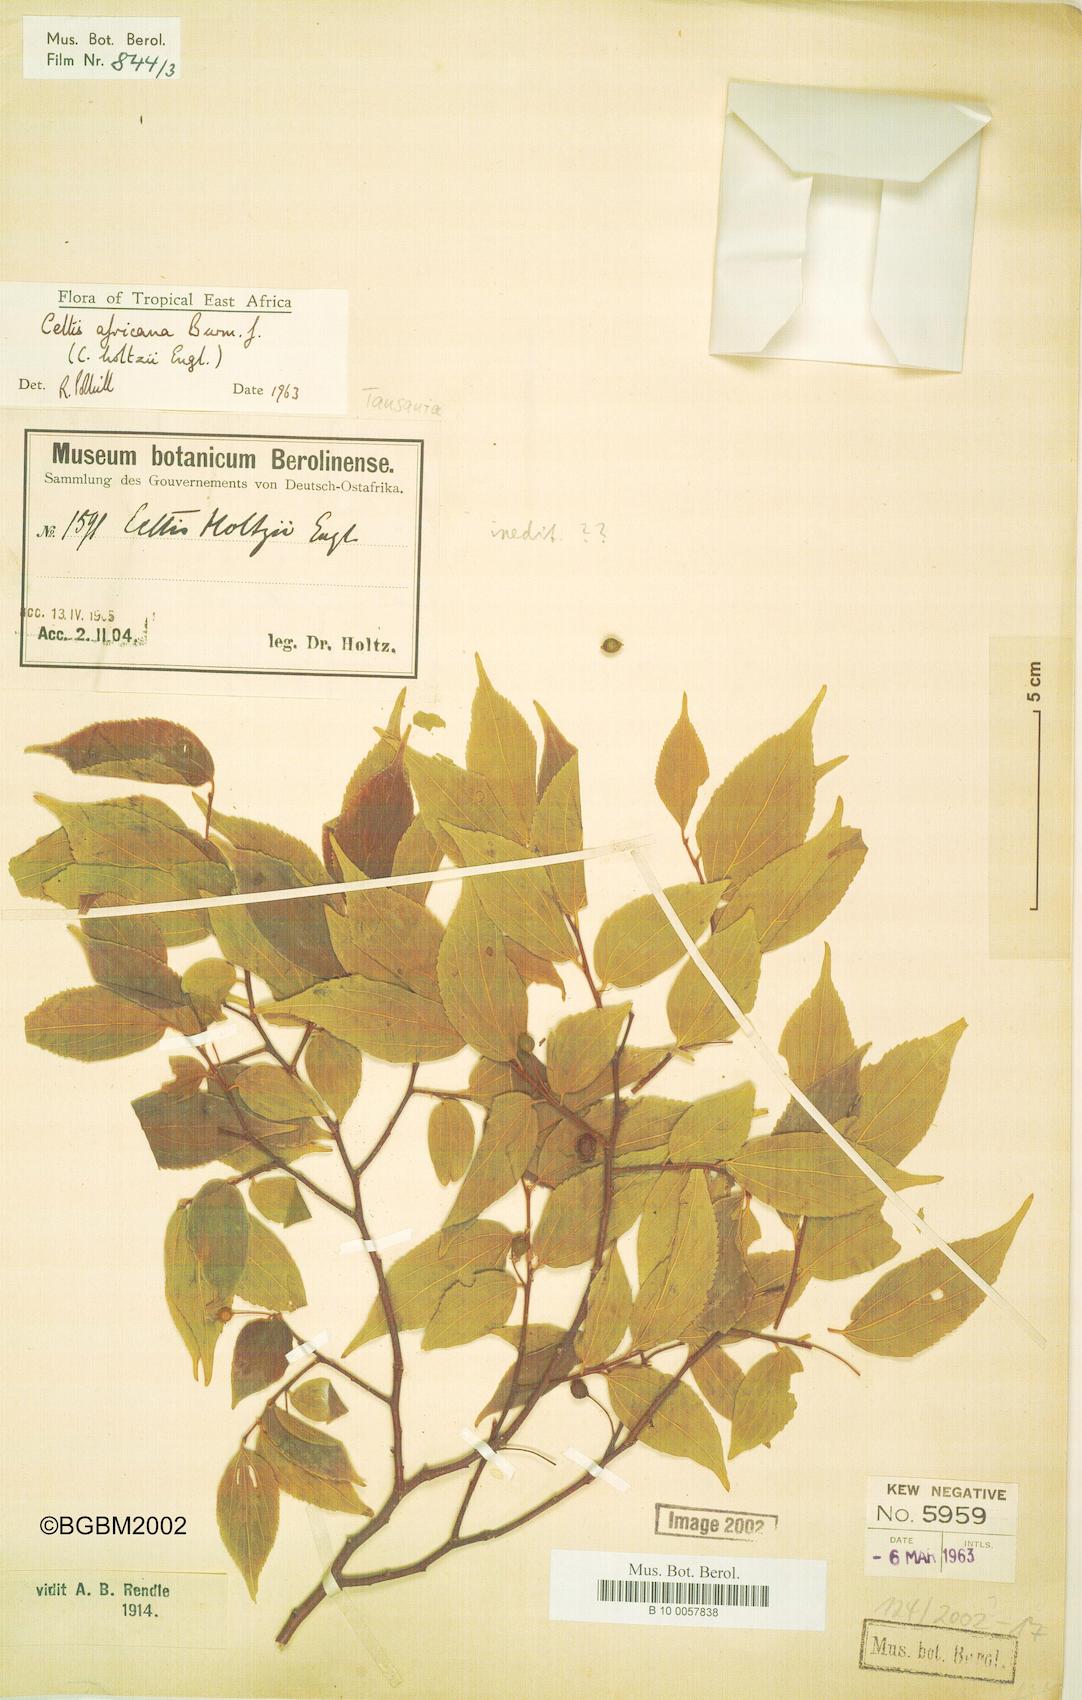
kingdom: Plantae
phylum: Tracheophyta
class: Magnoliopsida
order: Rosales
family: Cannabaceae
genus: Celtis
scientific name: Celtis africana
